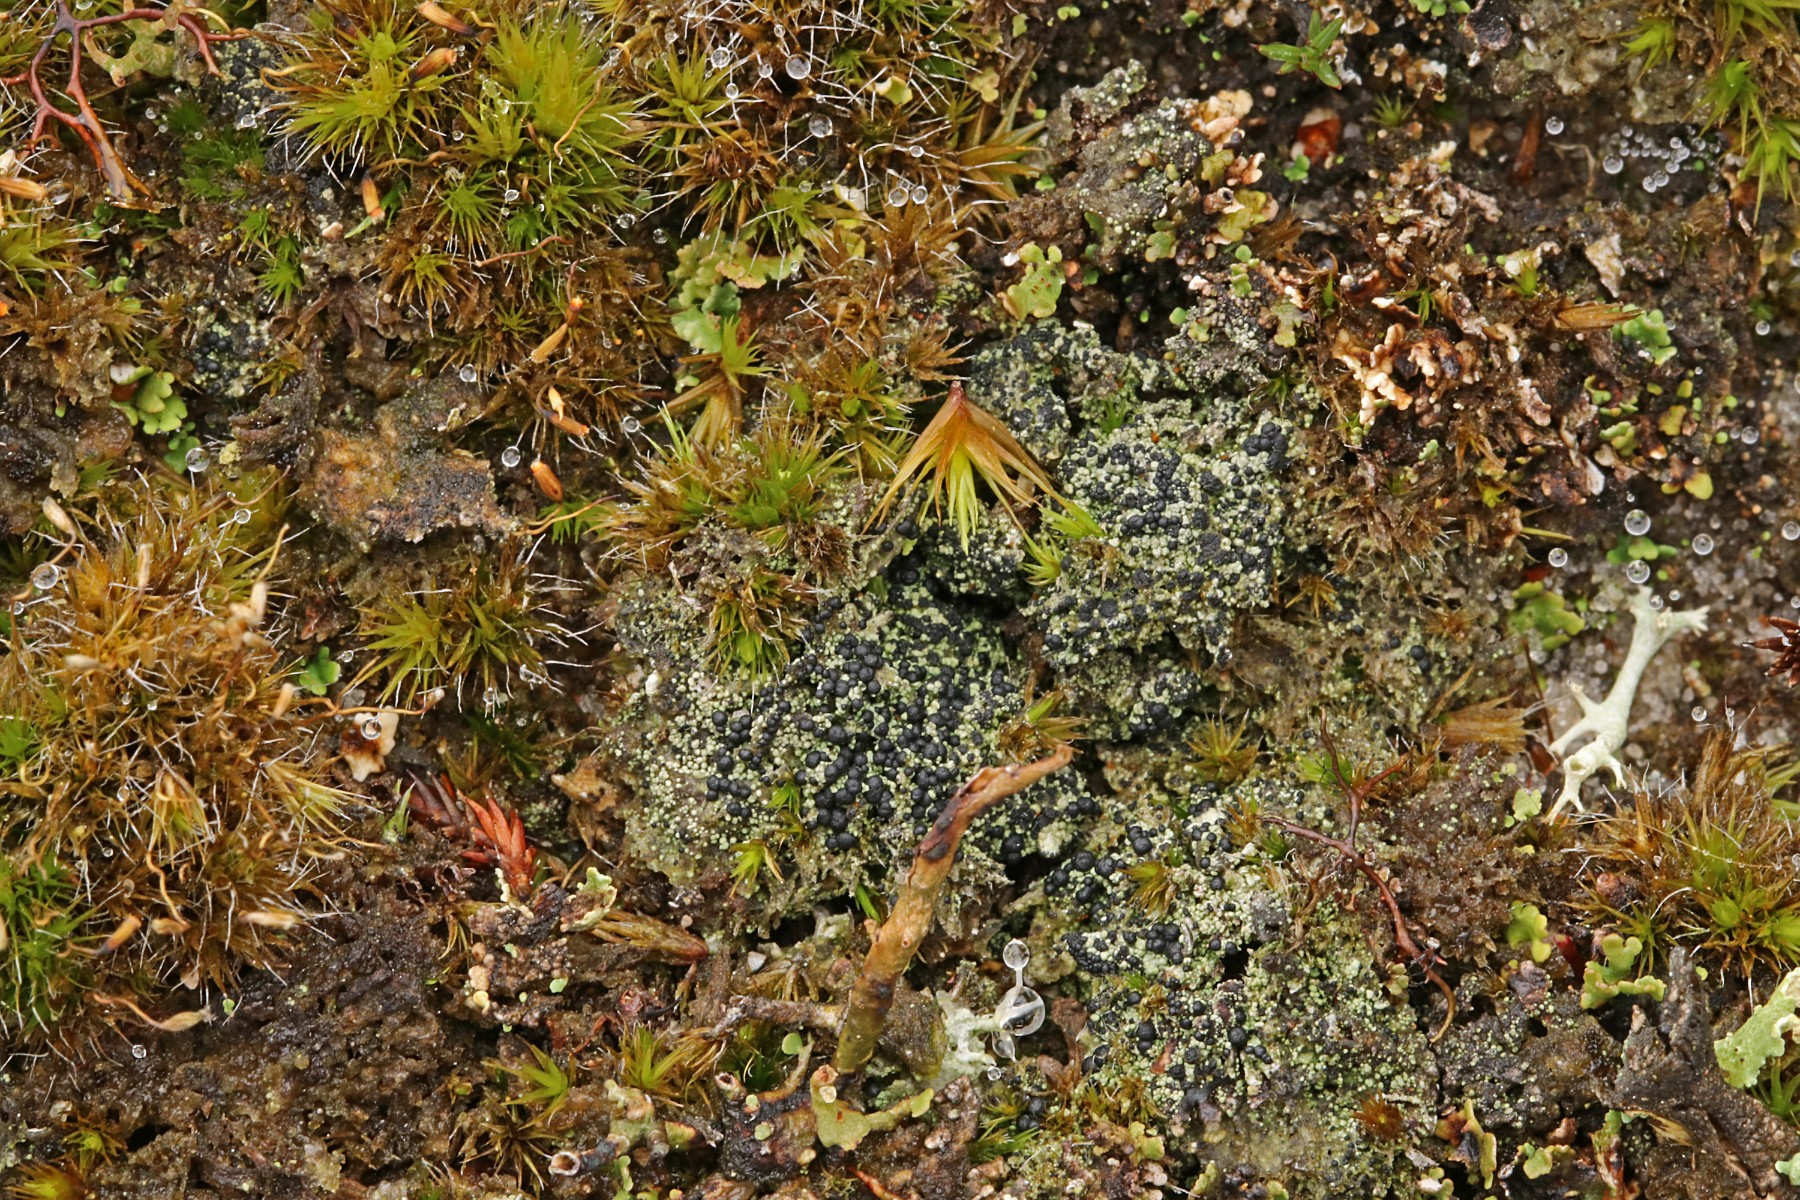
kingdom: Fungi
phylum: Ascomycota
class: Lecanoromycetes
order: Lecanorales
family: Byssolomataceae
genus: Micarea
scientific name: Micarea lignaria
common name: tørve-knaplav
